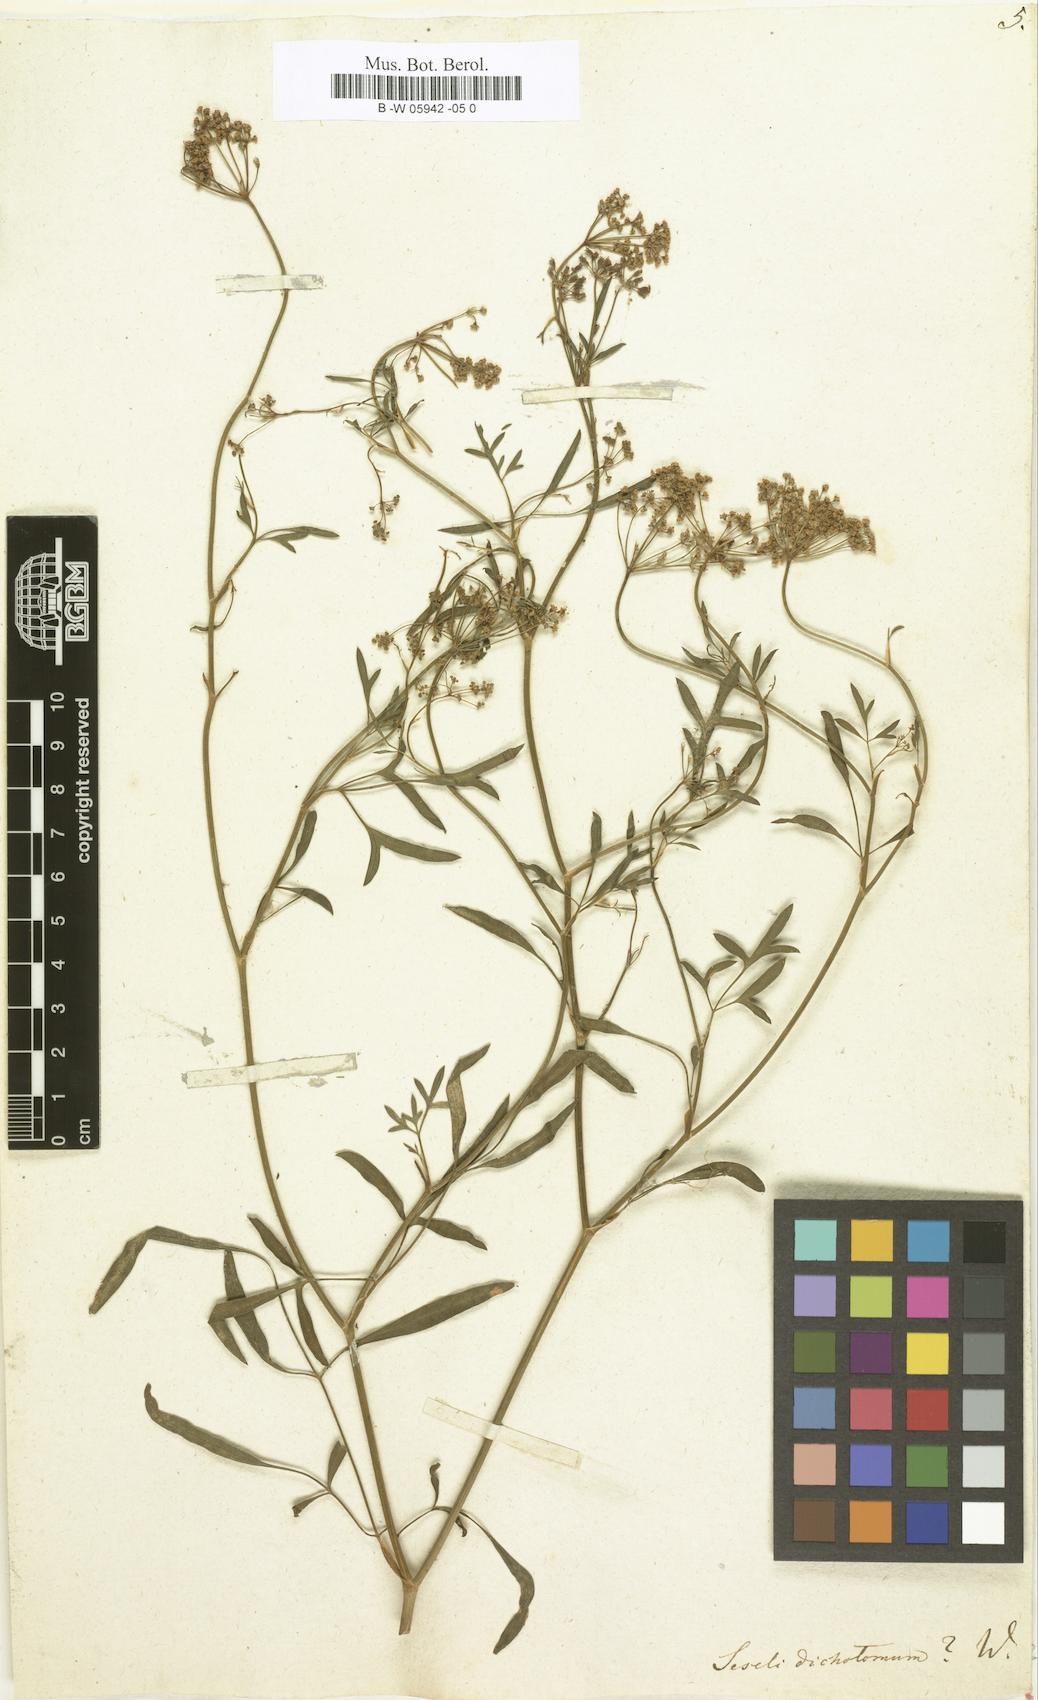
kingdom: Plantae
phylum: Tracheophyta
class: Magnoliopsida
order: Apiales
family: Apiaceae
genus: Seseli
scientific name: Seseli dichotomum
